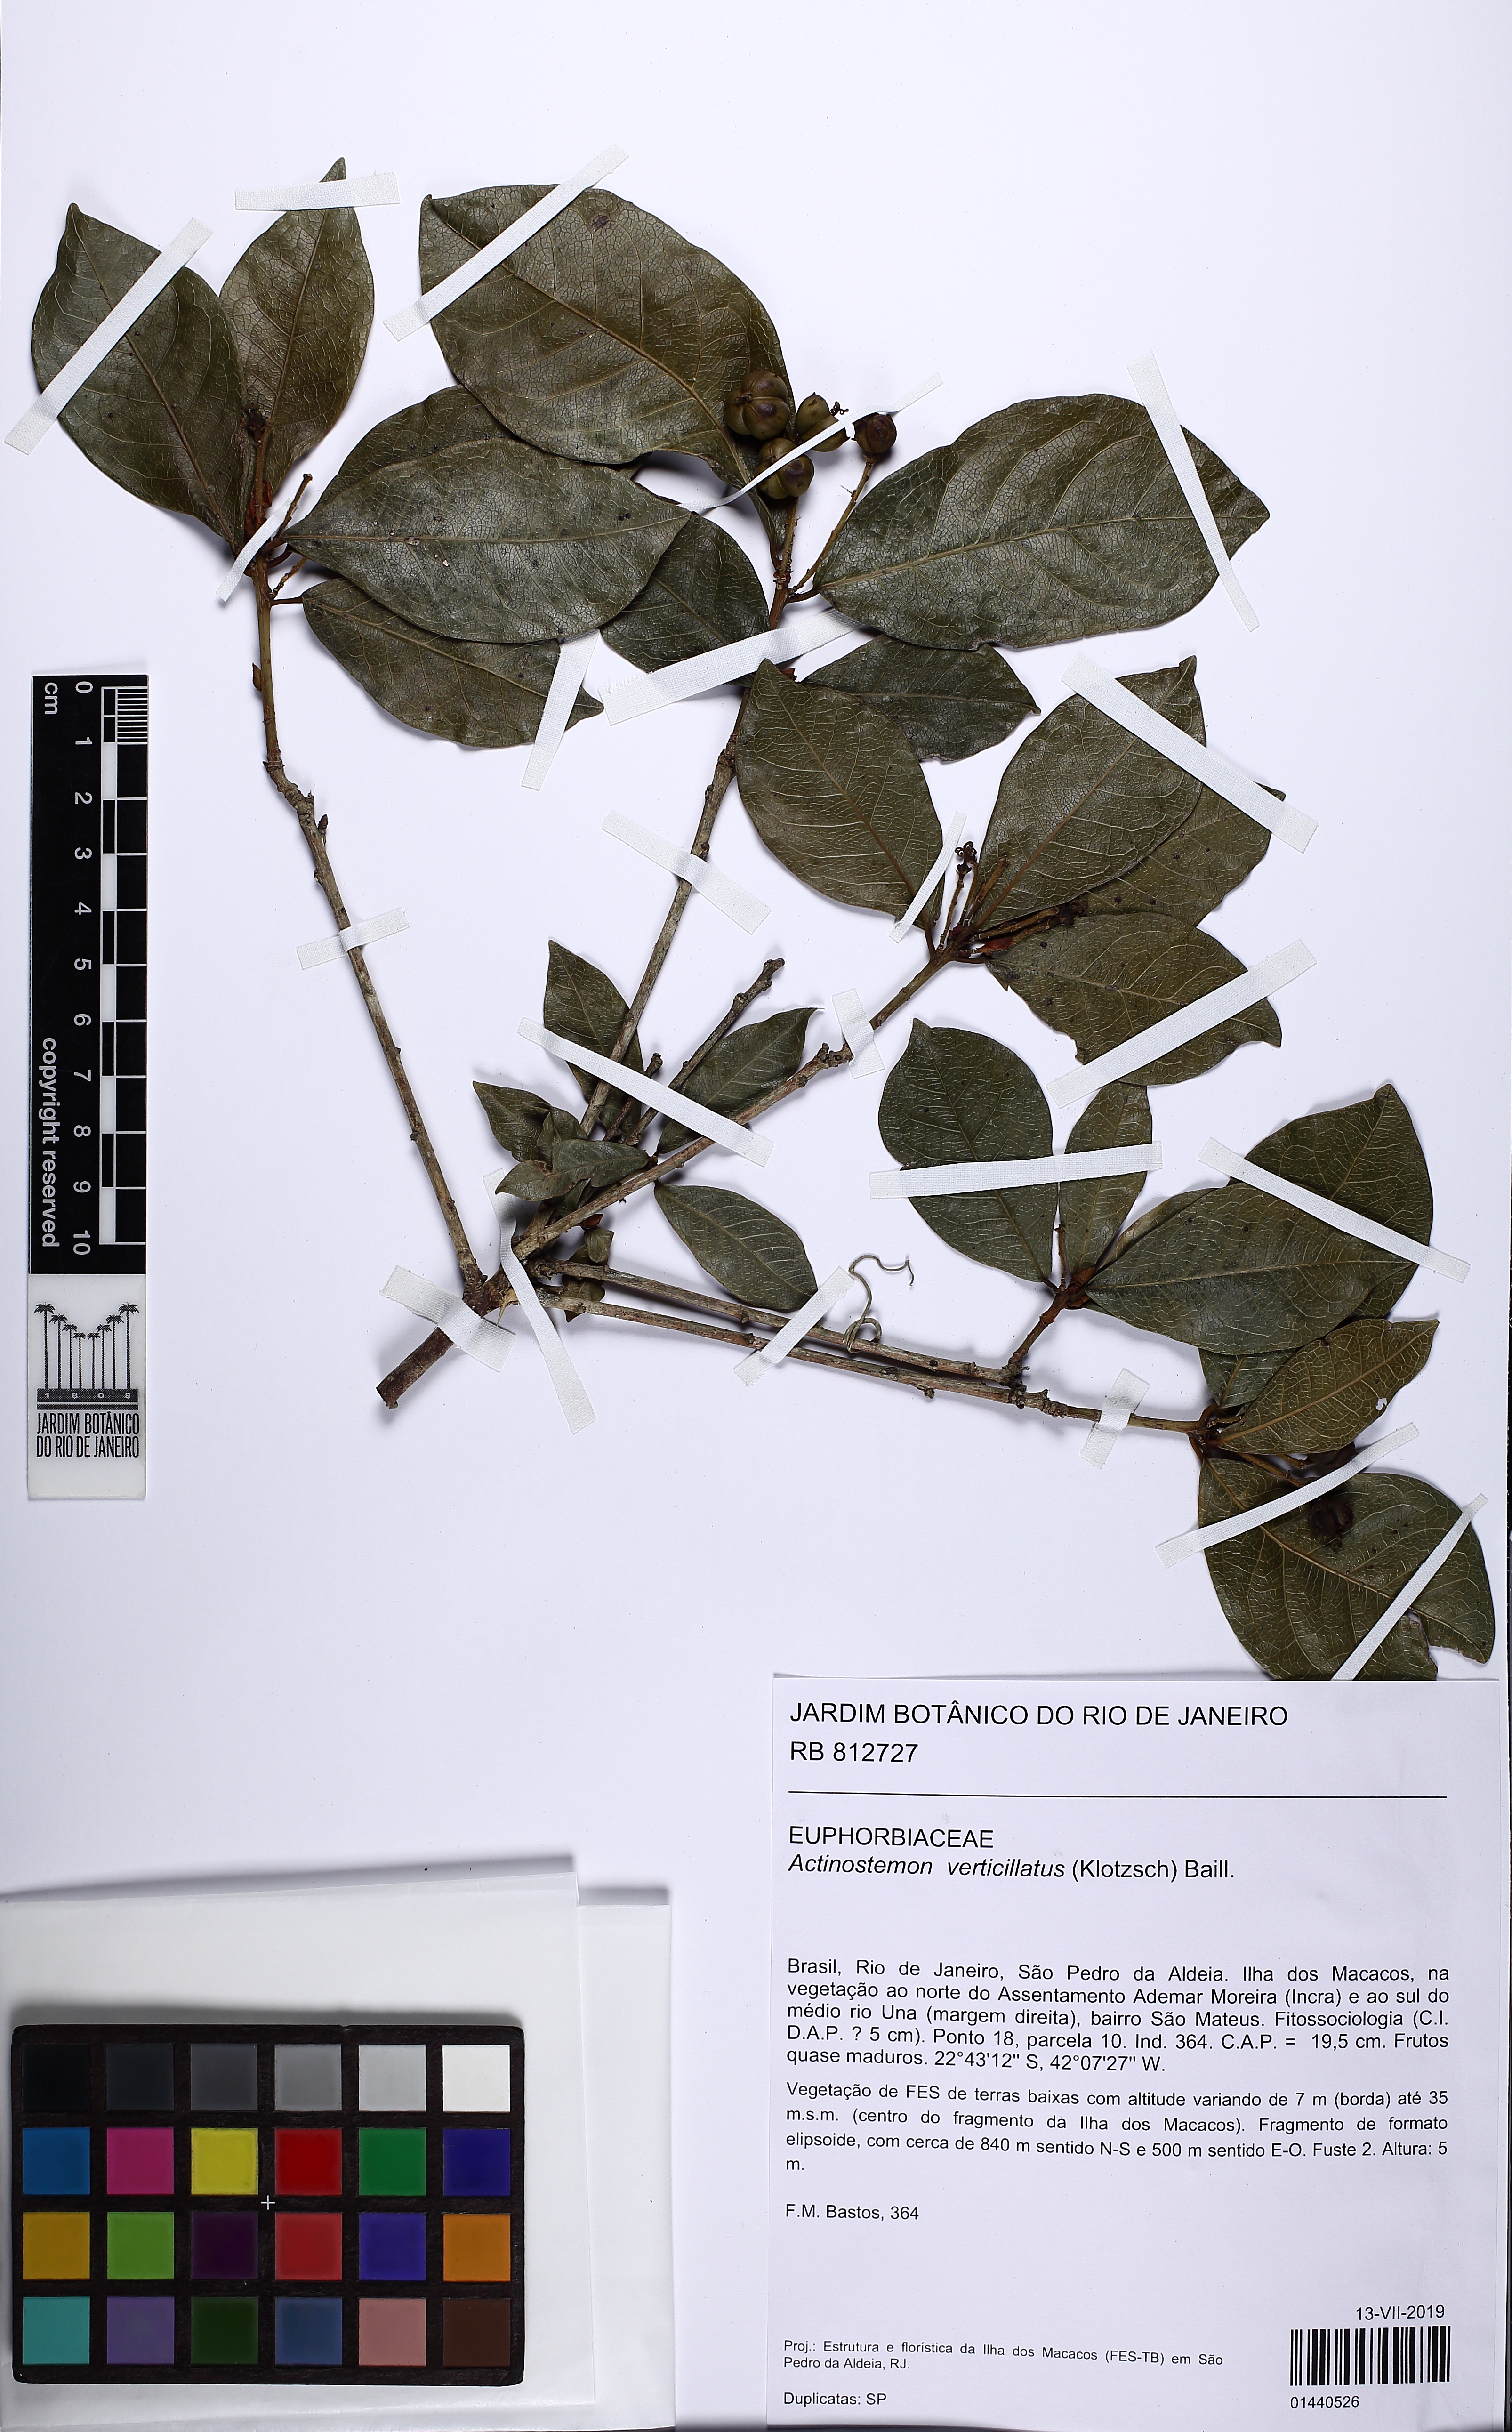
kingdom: Plantae
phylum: Tracheophyta
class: Magnoliopsida
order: Malpighiales
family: Euphorbiaceae
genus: Actinostemon
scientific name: Actinostemon verticillatus
